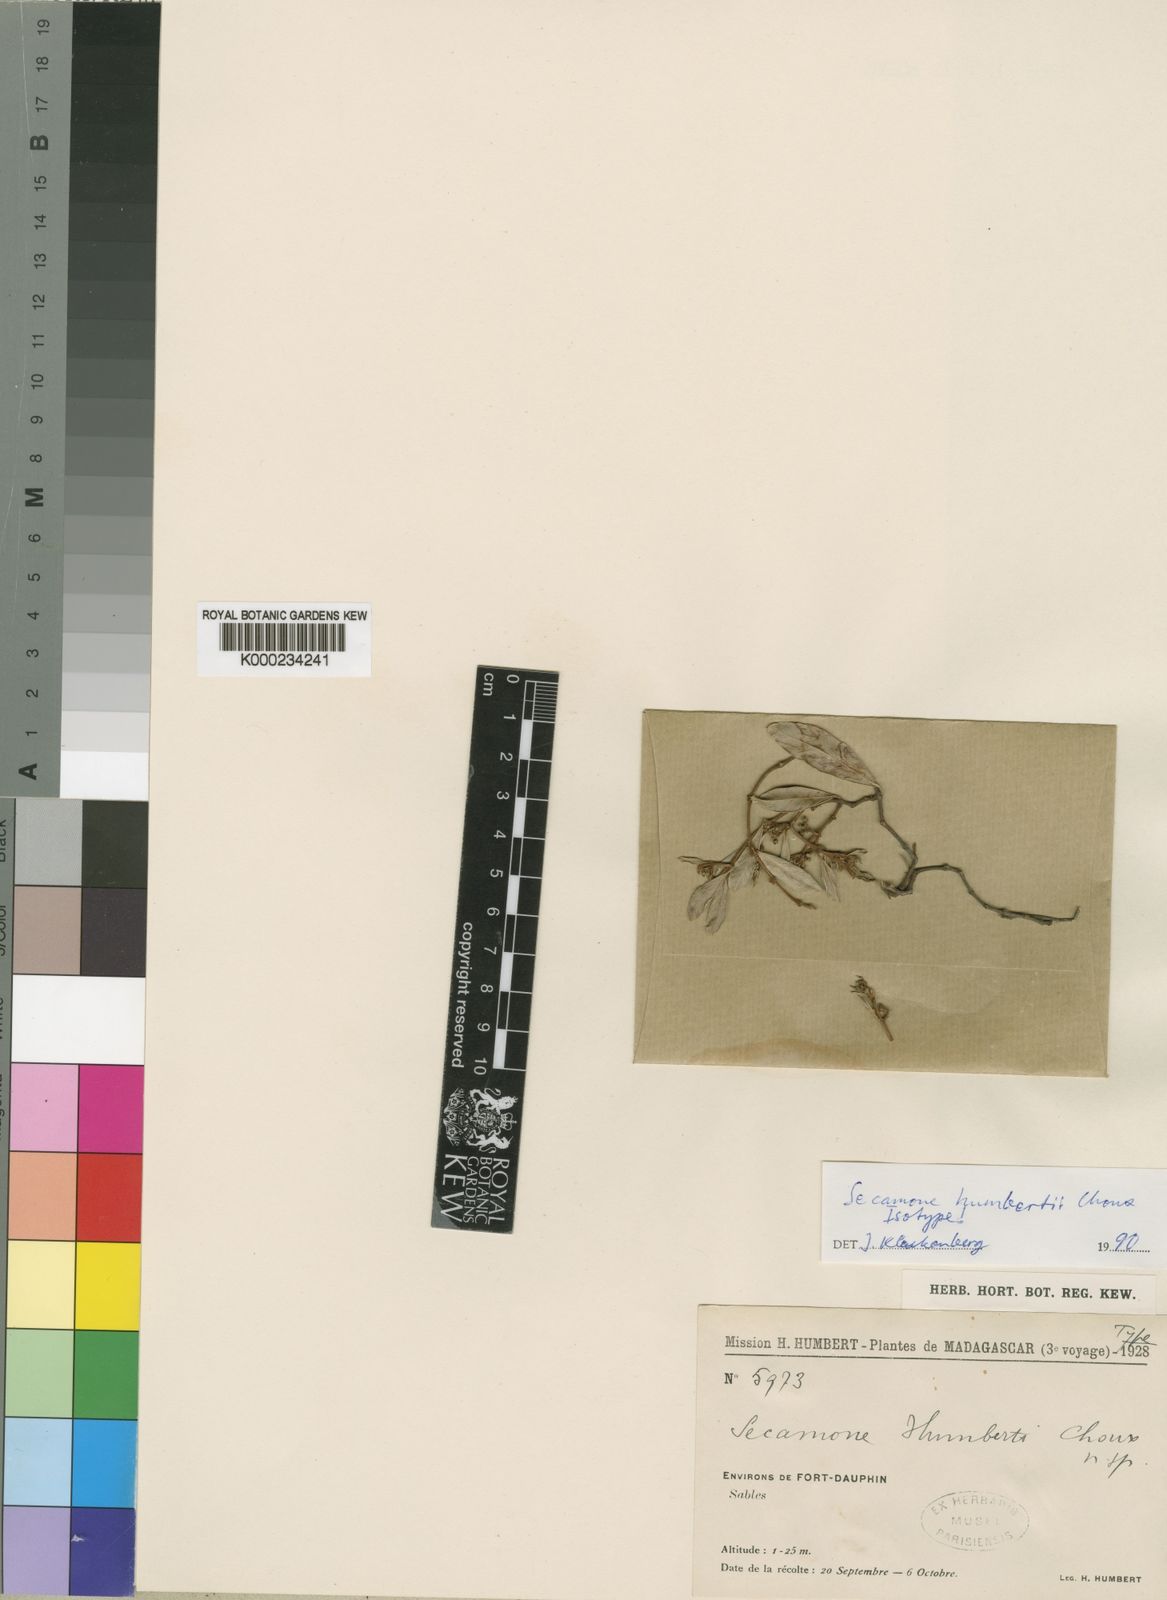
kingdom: Plantae
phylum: Tracheophyta
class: Magnoliopsida
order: Gentianales
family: Apocynaceae
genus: Secamone
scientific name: Secamone humbertii
